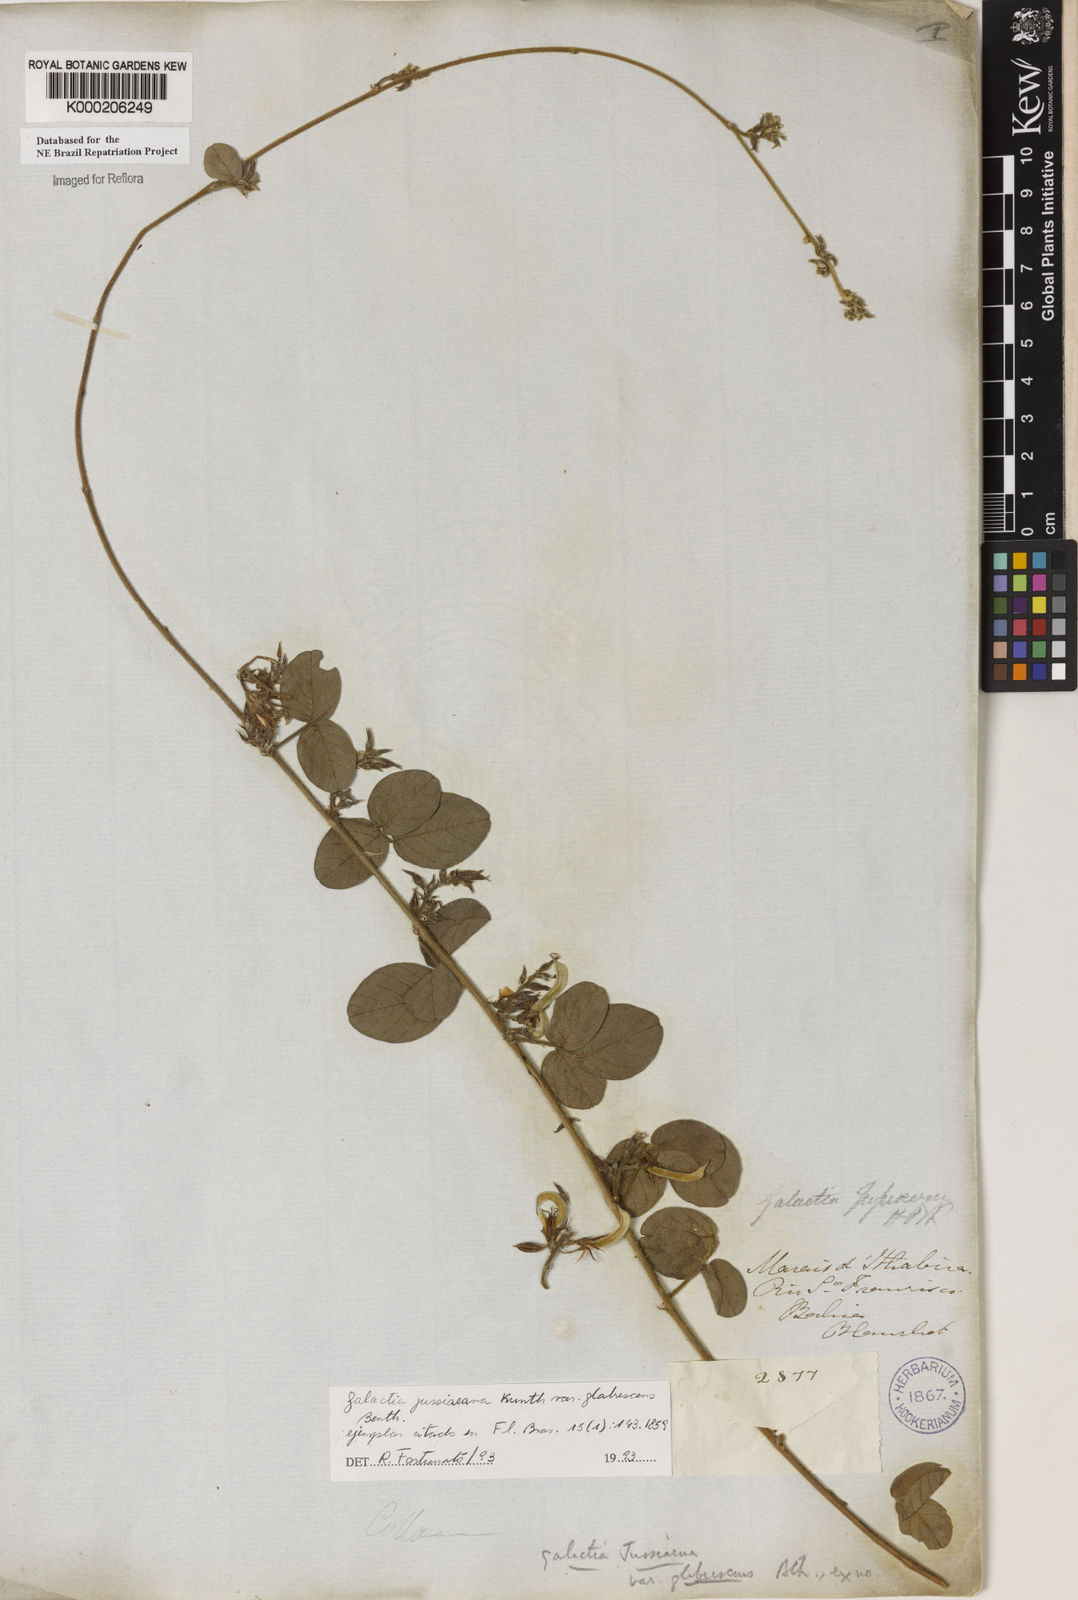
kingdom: Plantae
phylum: Tracheophyta
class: Magnoliopsida
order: Fabales
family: Fabaceae
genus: Galactia
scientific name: Galactia jussiaeana
